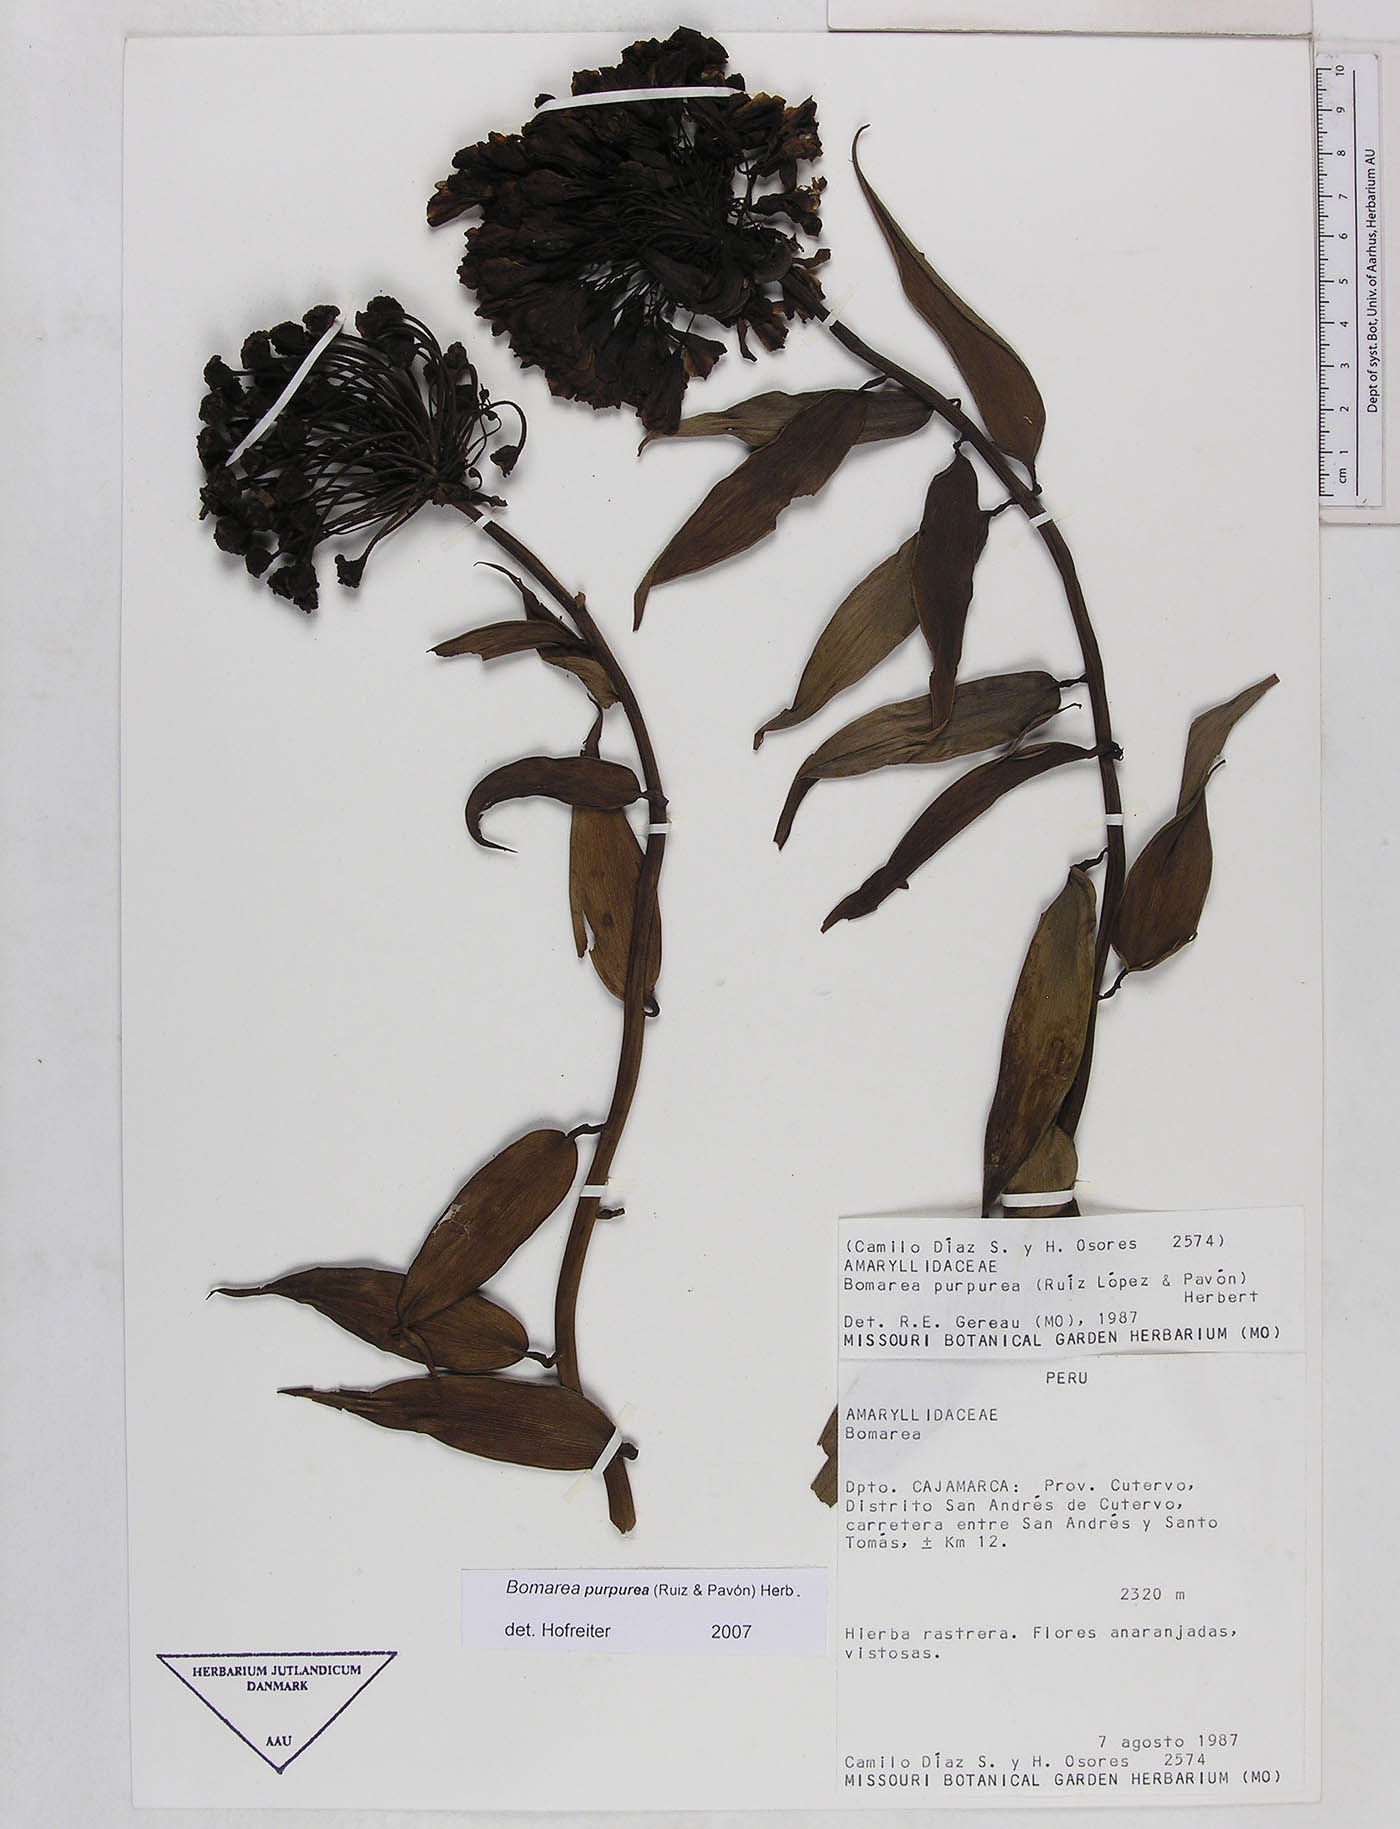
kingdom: Plantae
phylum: Tracheophyta
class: Liliopsida
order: Liliales
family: Alstroemeriaceae
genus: Bomarea
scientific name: Bomarea purpurea
